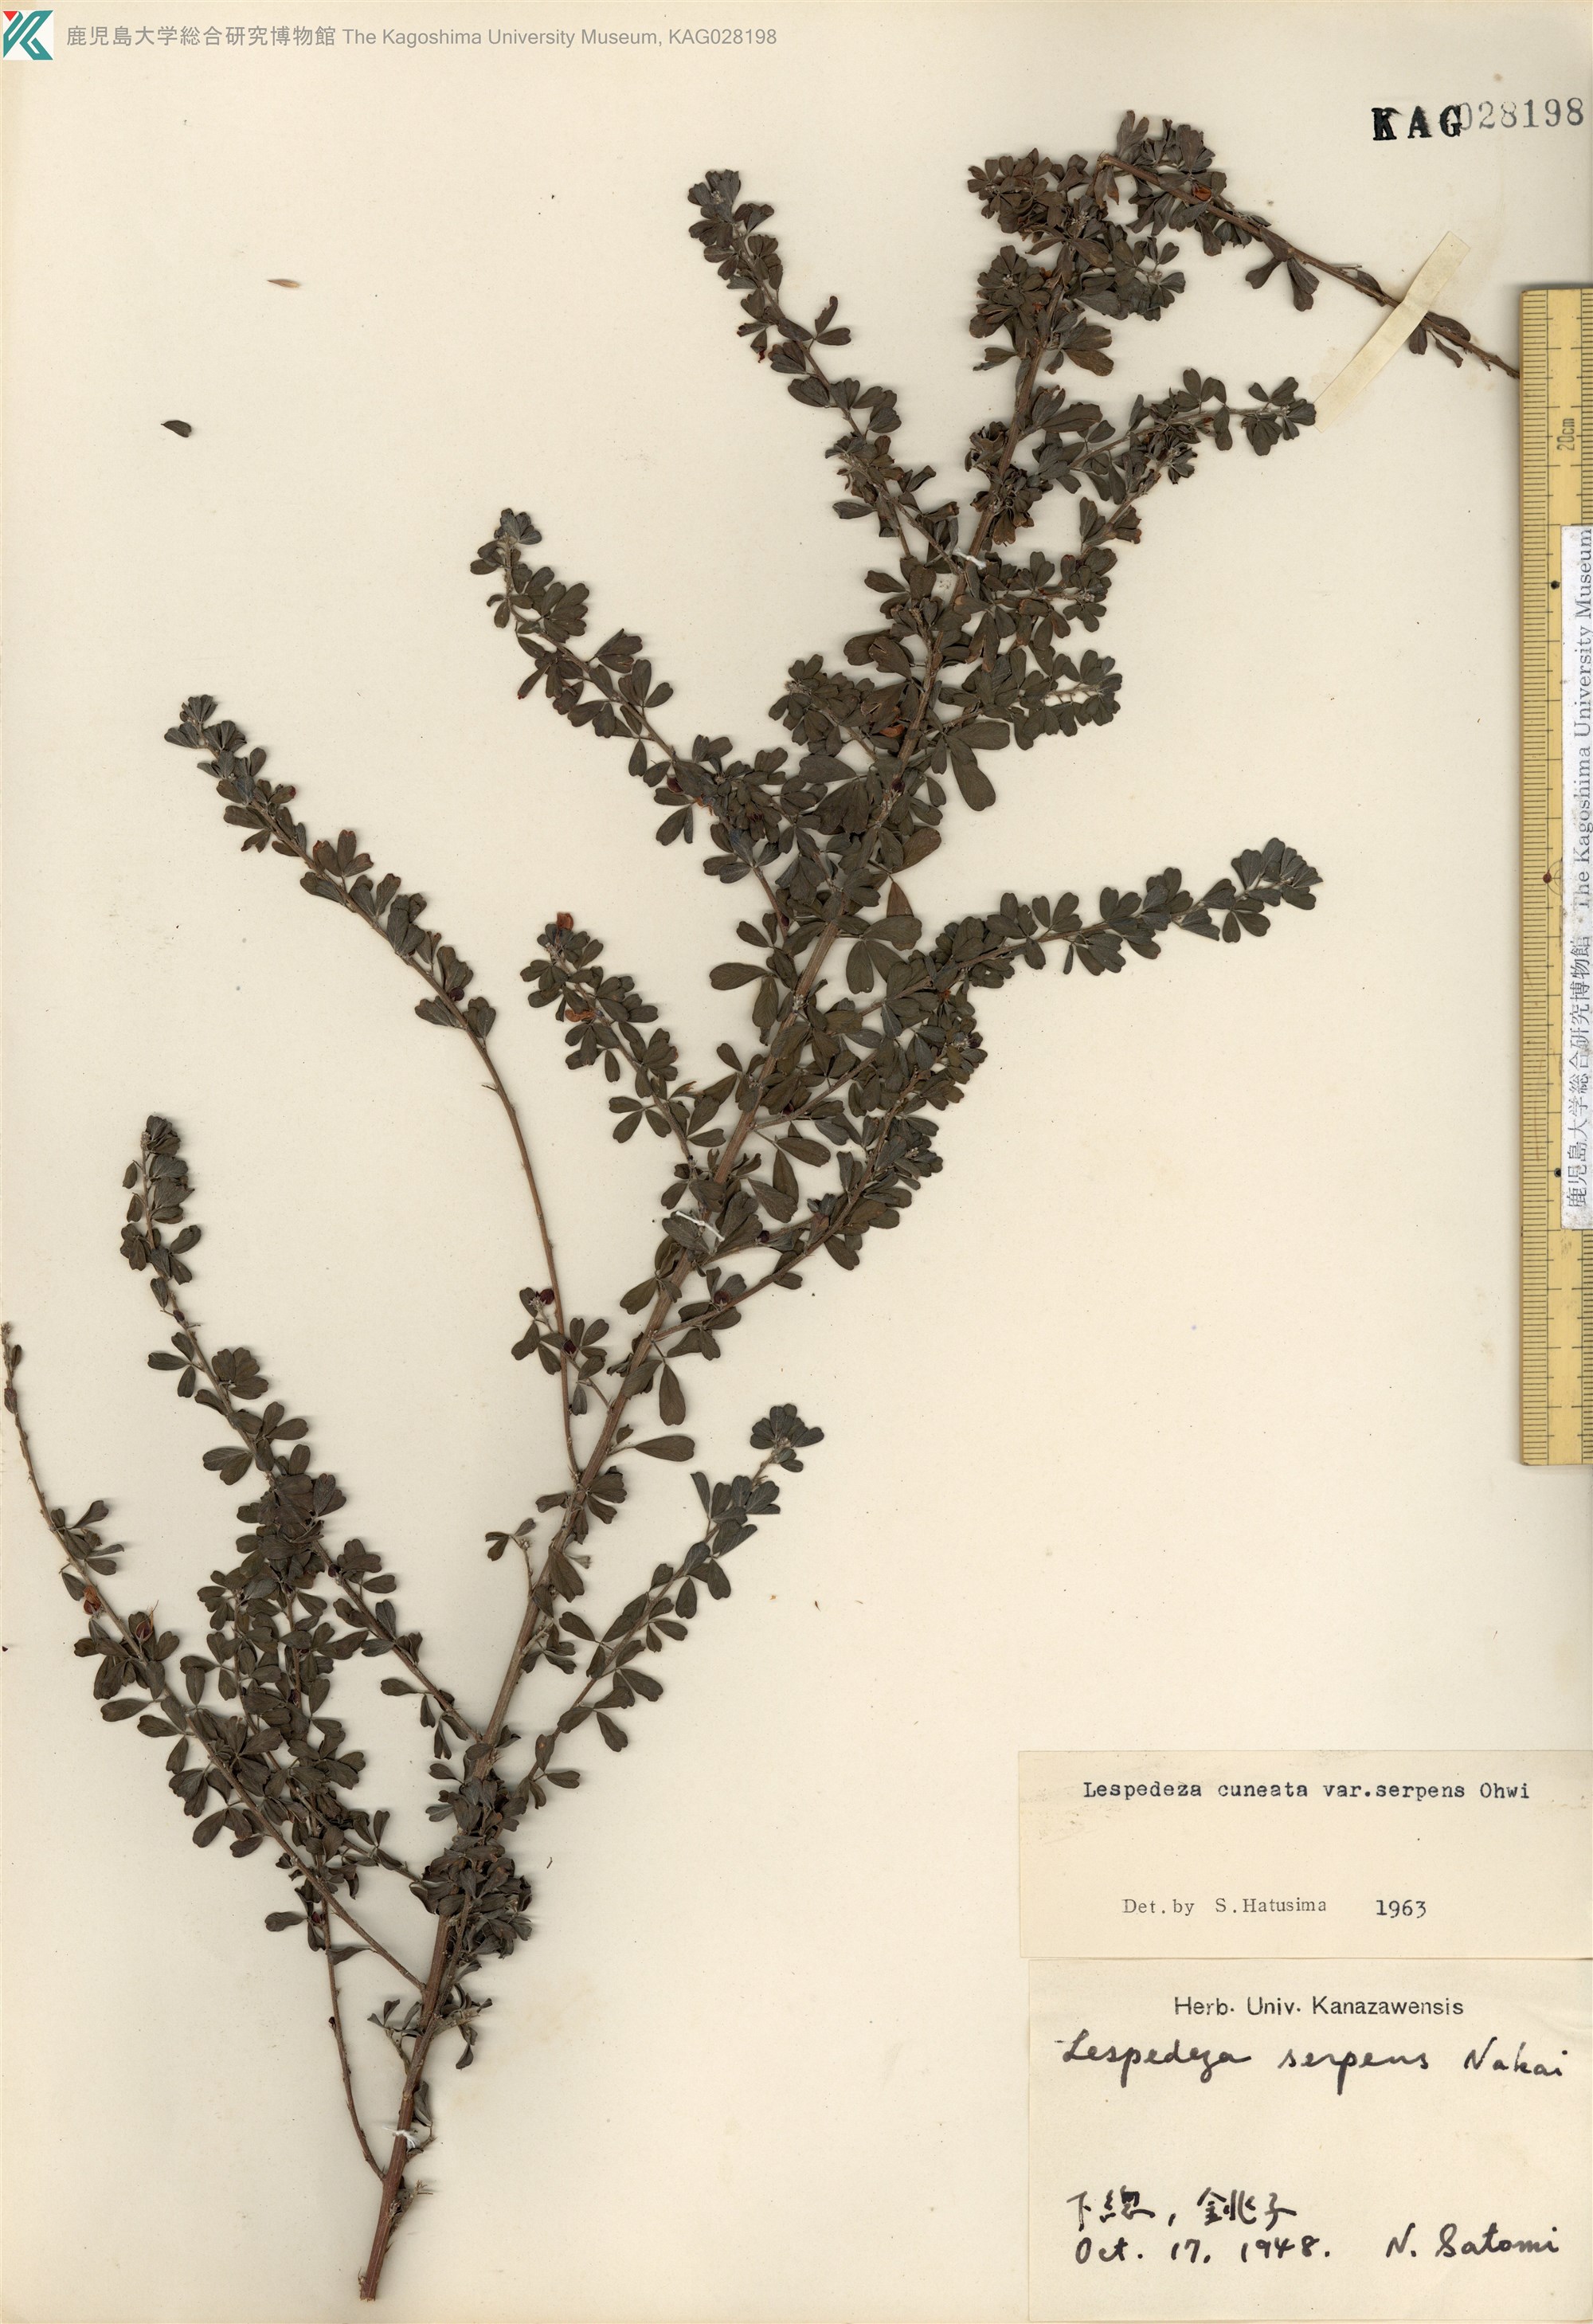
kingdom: Plantae
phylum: Tracheophyta
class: Magnoliopsida
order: Fabales
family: Fabaceae
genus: Lespedeza
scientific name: Lespedeza cuneata
